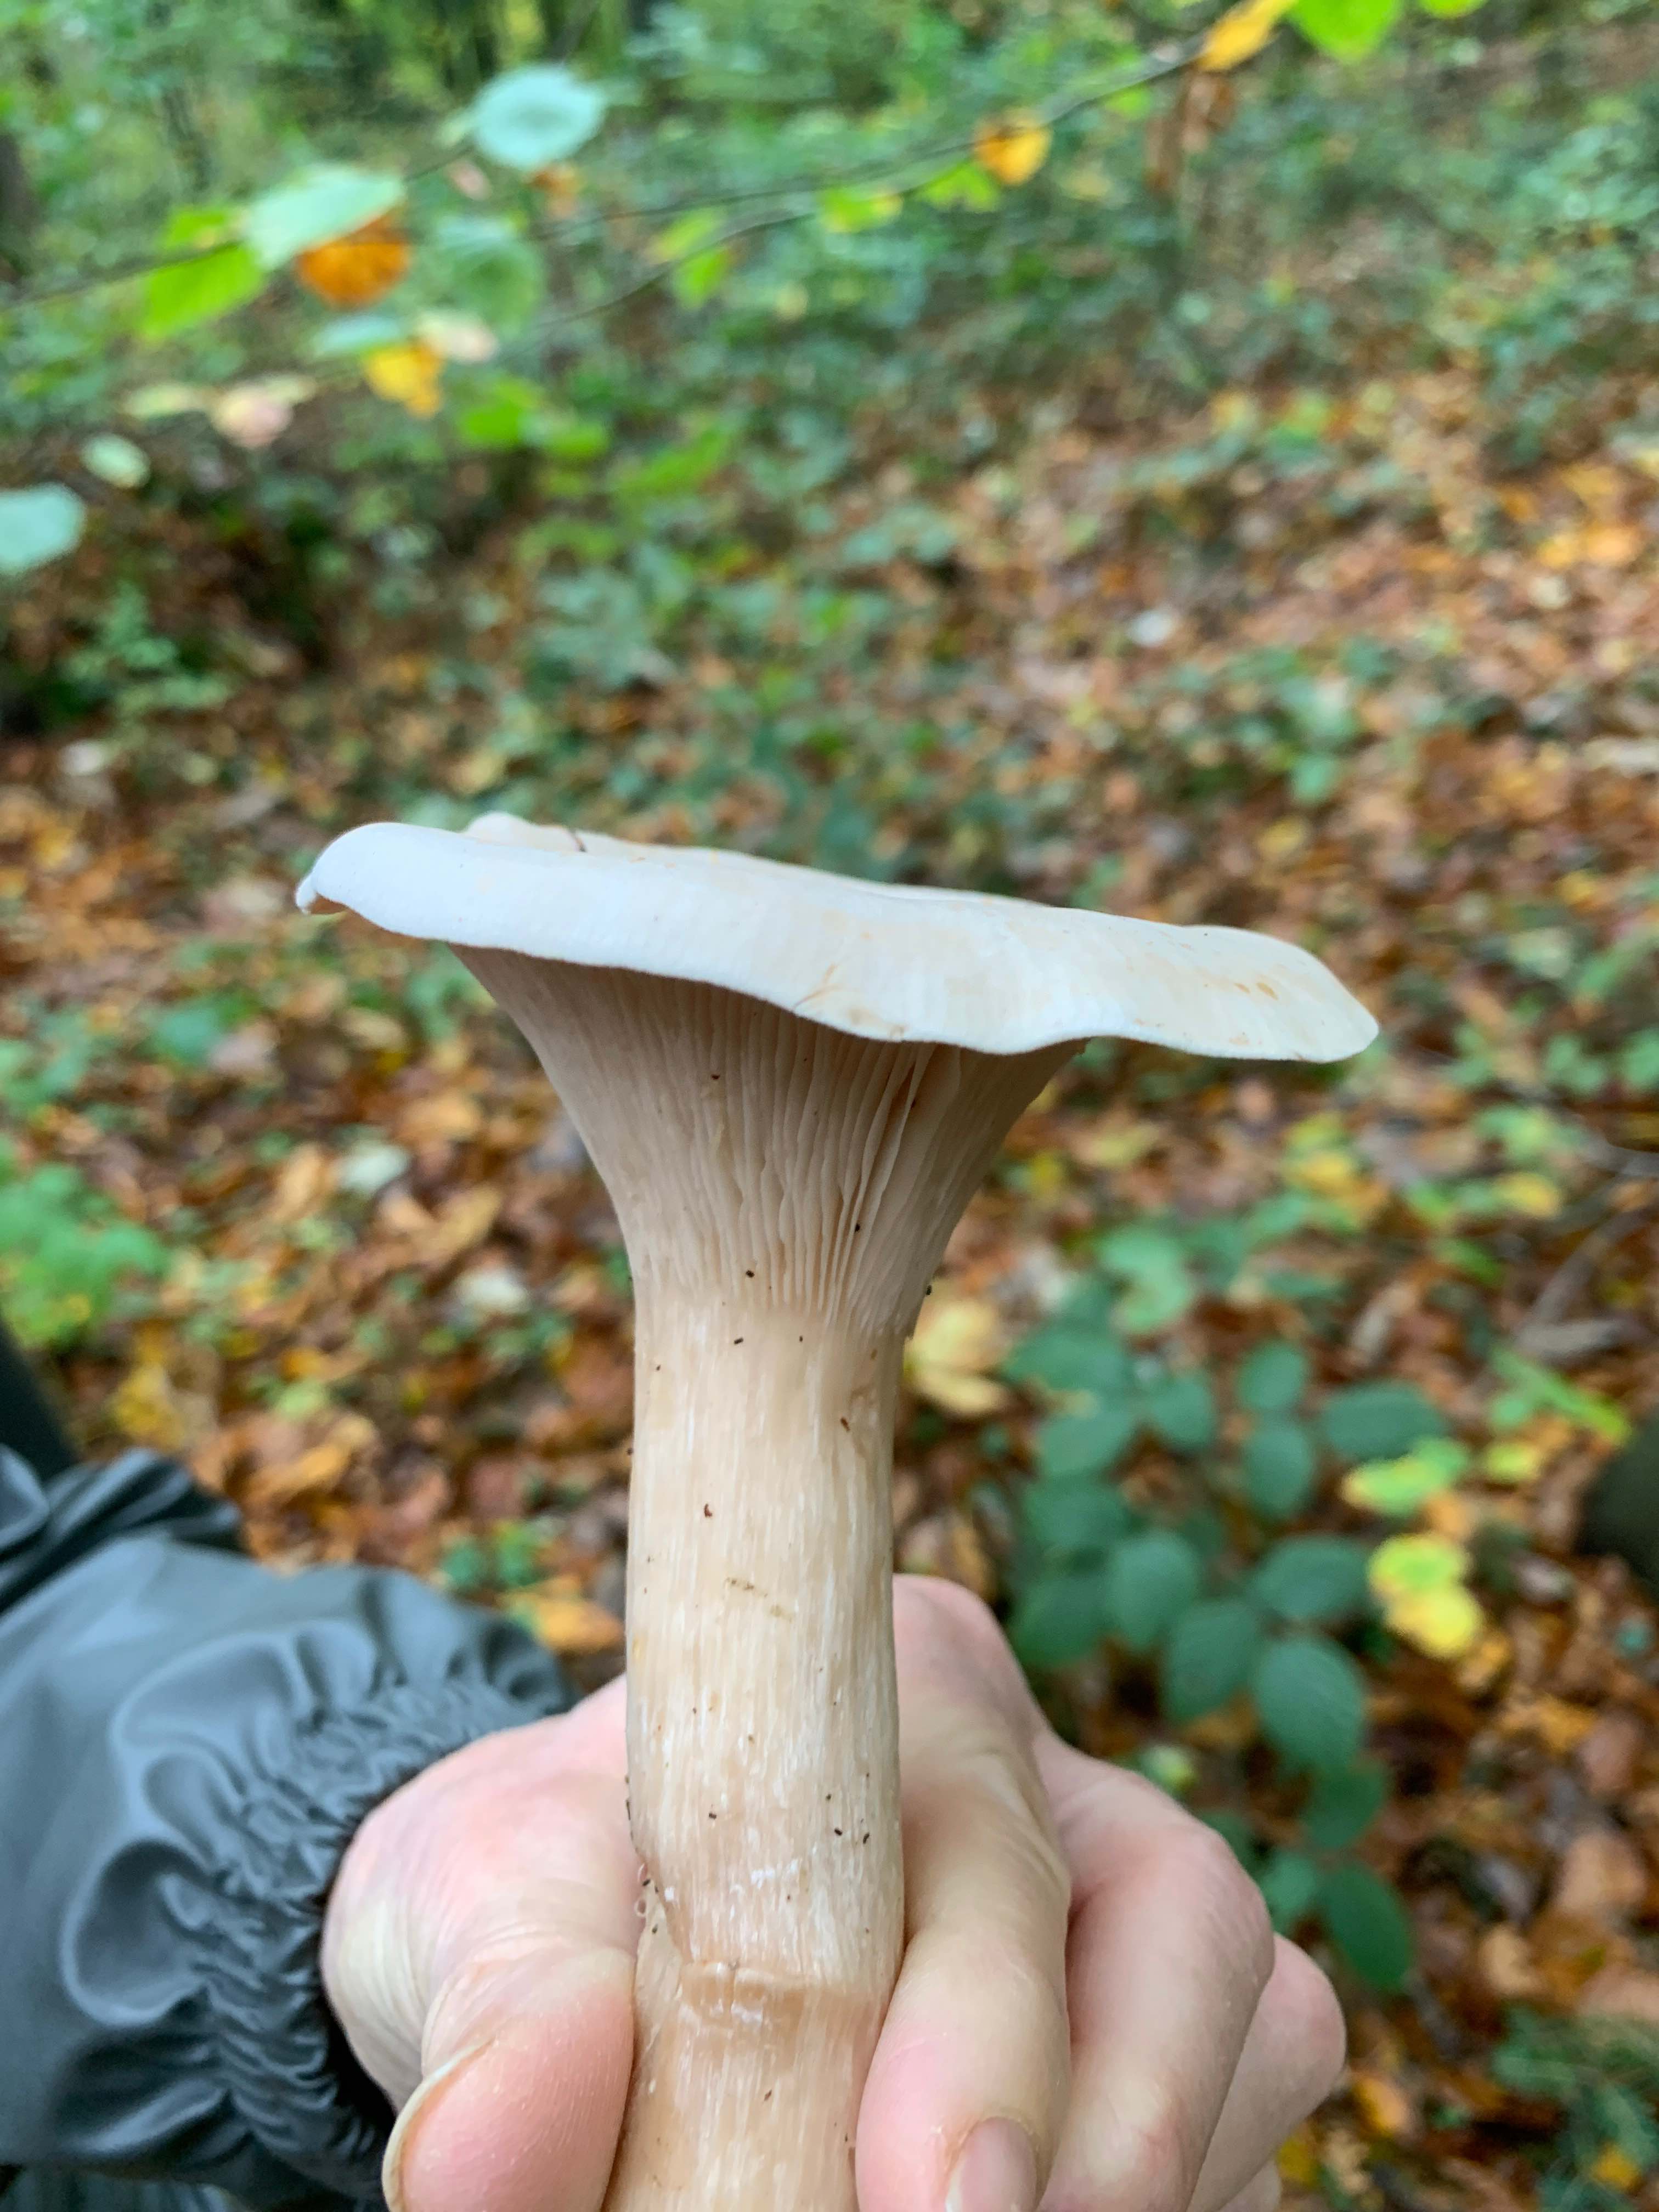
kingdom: Fungi
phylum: Basidiomycota
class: Agaricomycetes
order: Agaricales
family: Tricholomataceae
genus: Infundibulicybe
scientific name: Infundibulicybe geotropa
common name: stor tragthat
